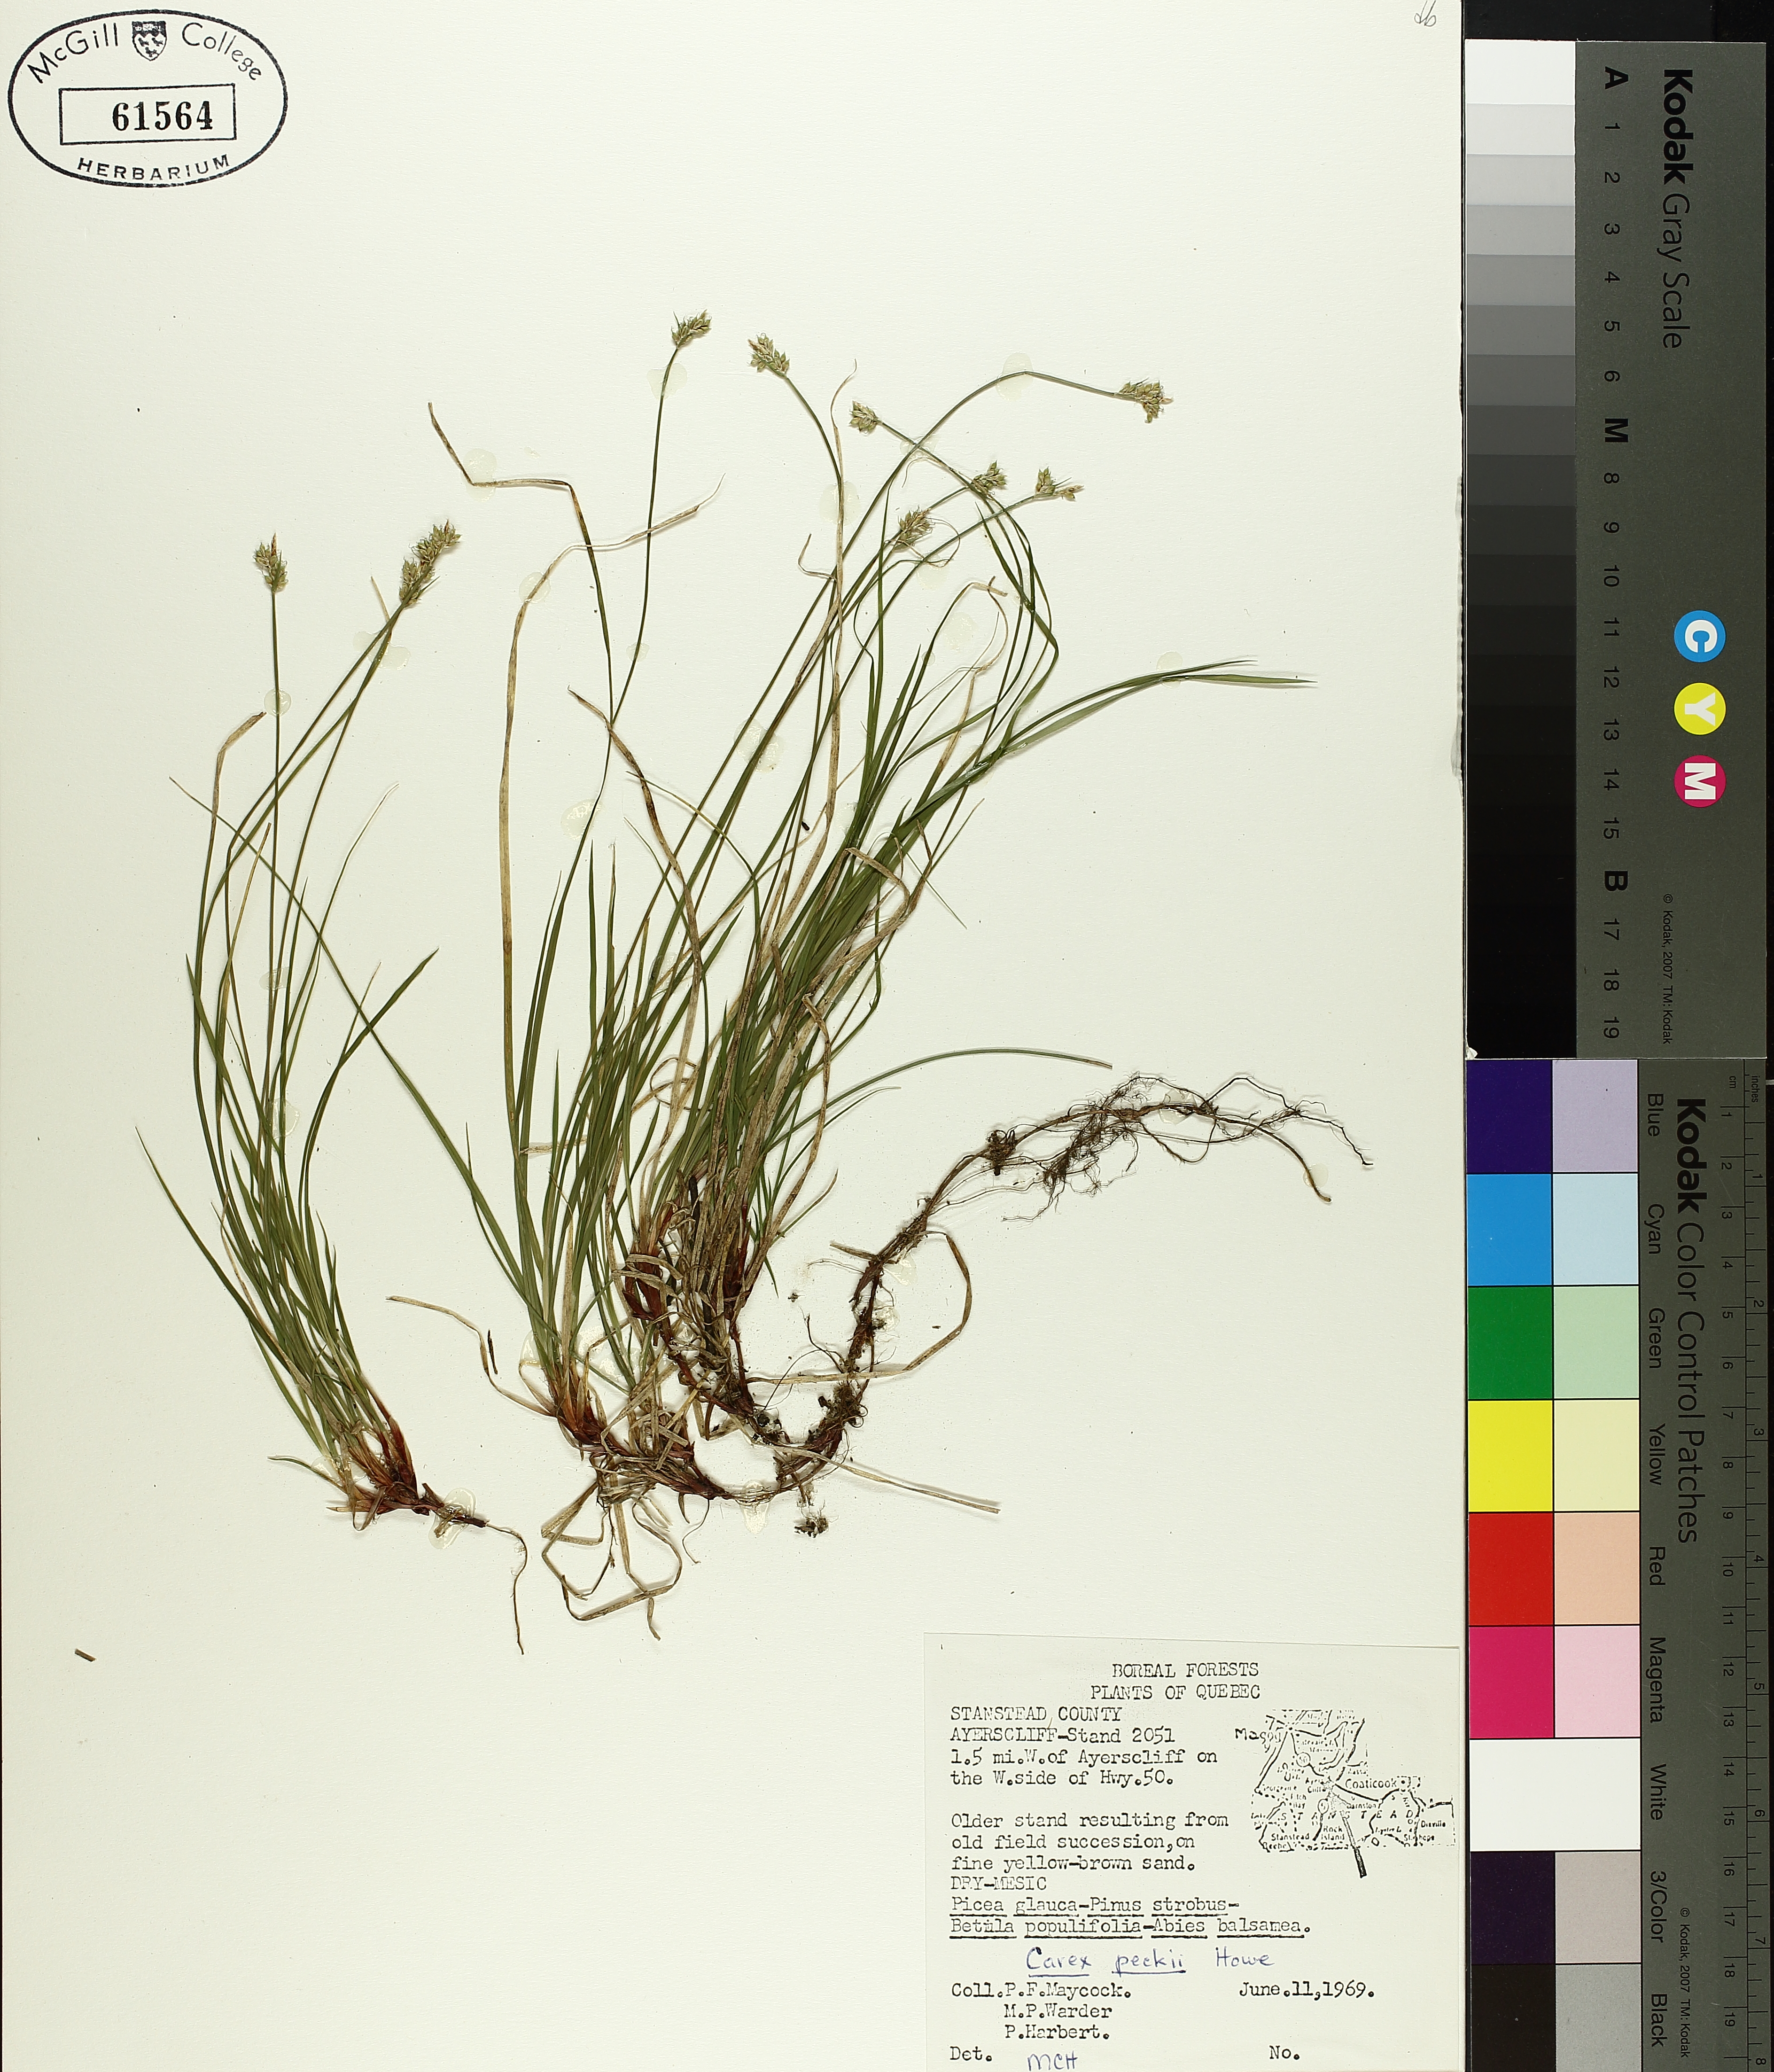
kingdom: Plantae
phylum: Tracheophyta
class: Liliopsida
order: Poales
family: Cyperaceae
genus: Carex
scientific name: Carex peckii
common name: Peck's oak sedge
